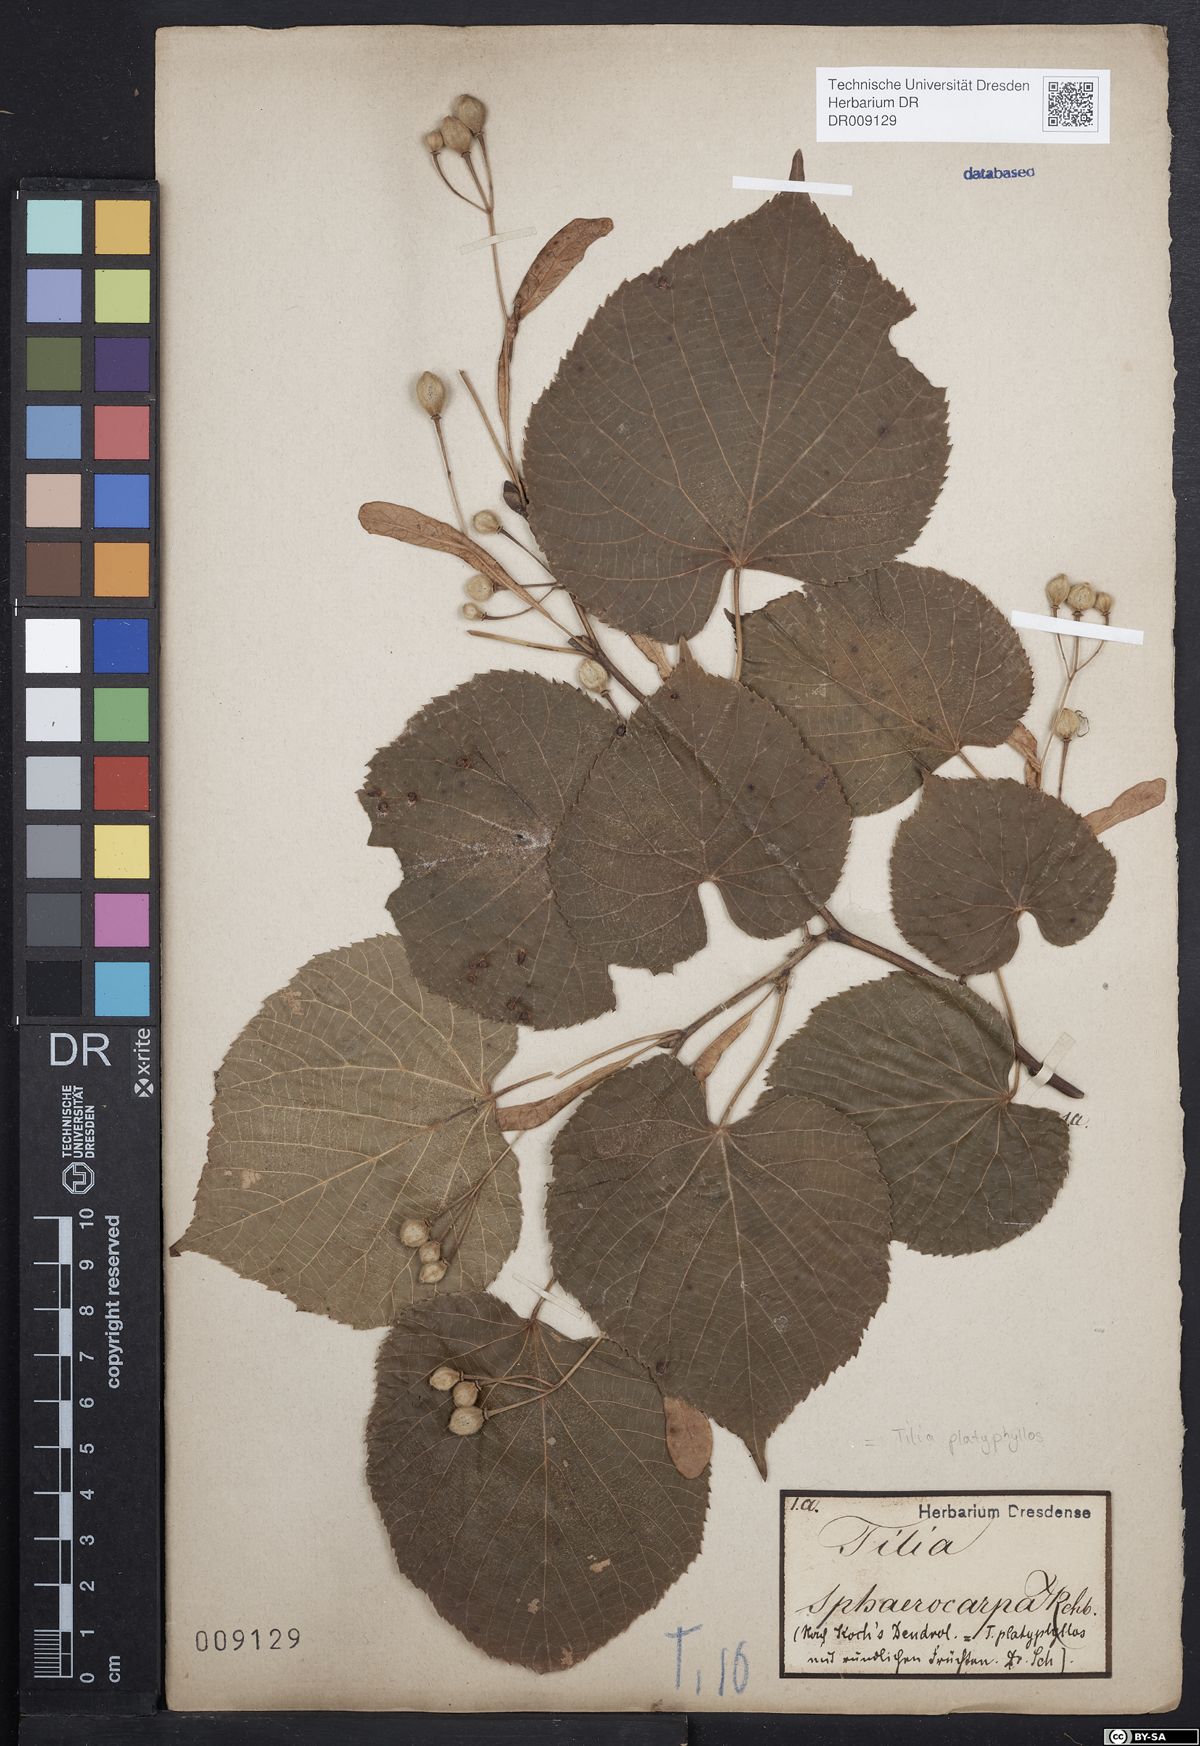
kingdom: Plantae
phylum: Tracheophyta
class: Magnoliopsida
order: Malvales
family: Malvaceae
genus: Tilia
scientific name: Tilia platyphyllos
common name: Large-leaved lime
